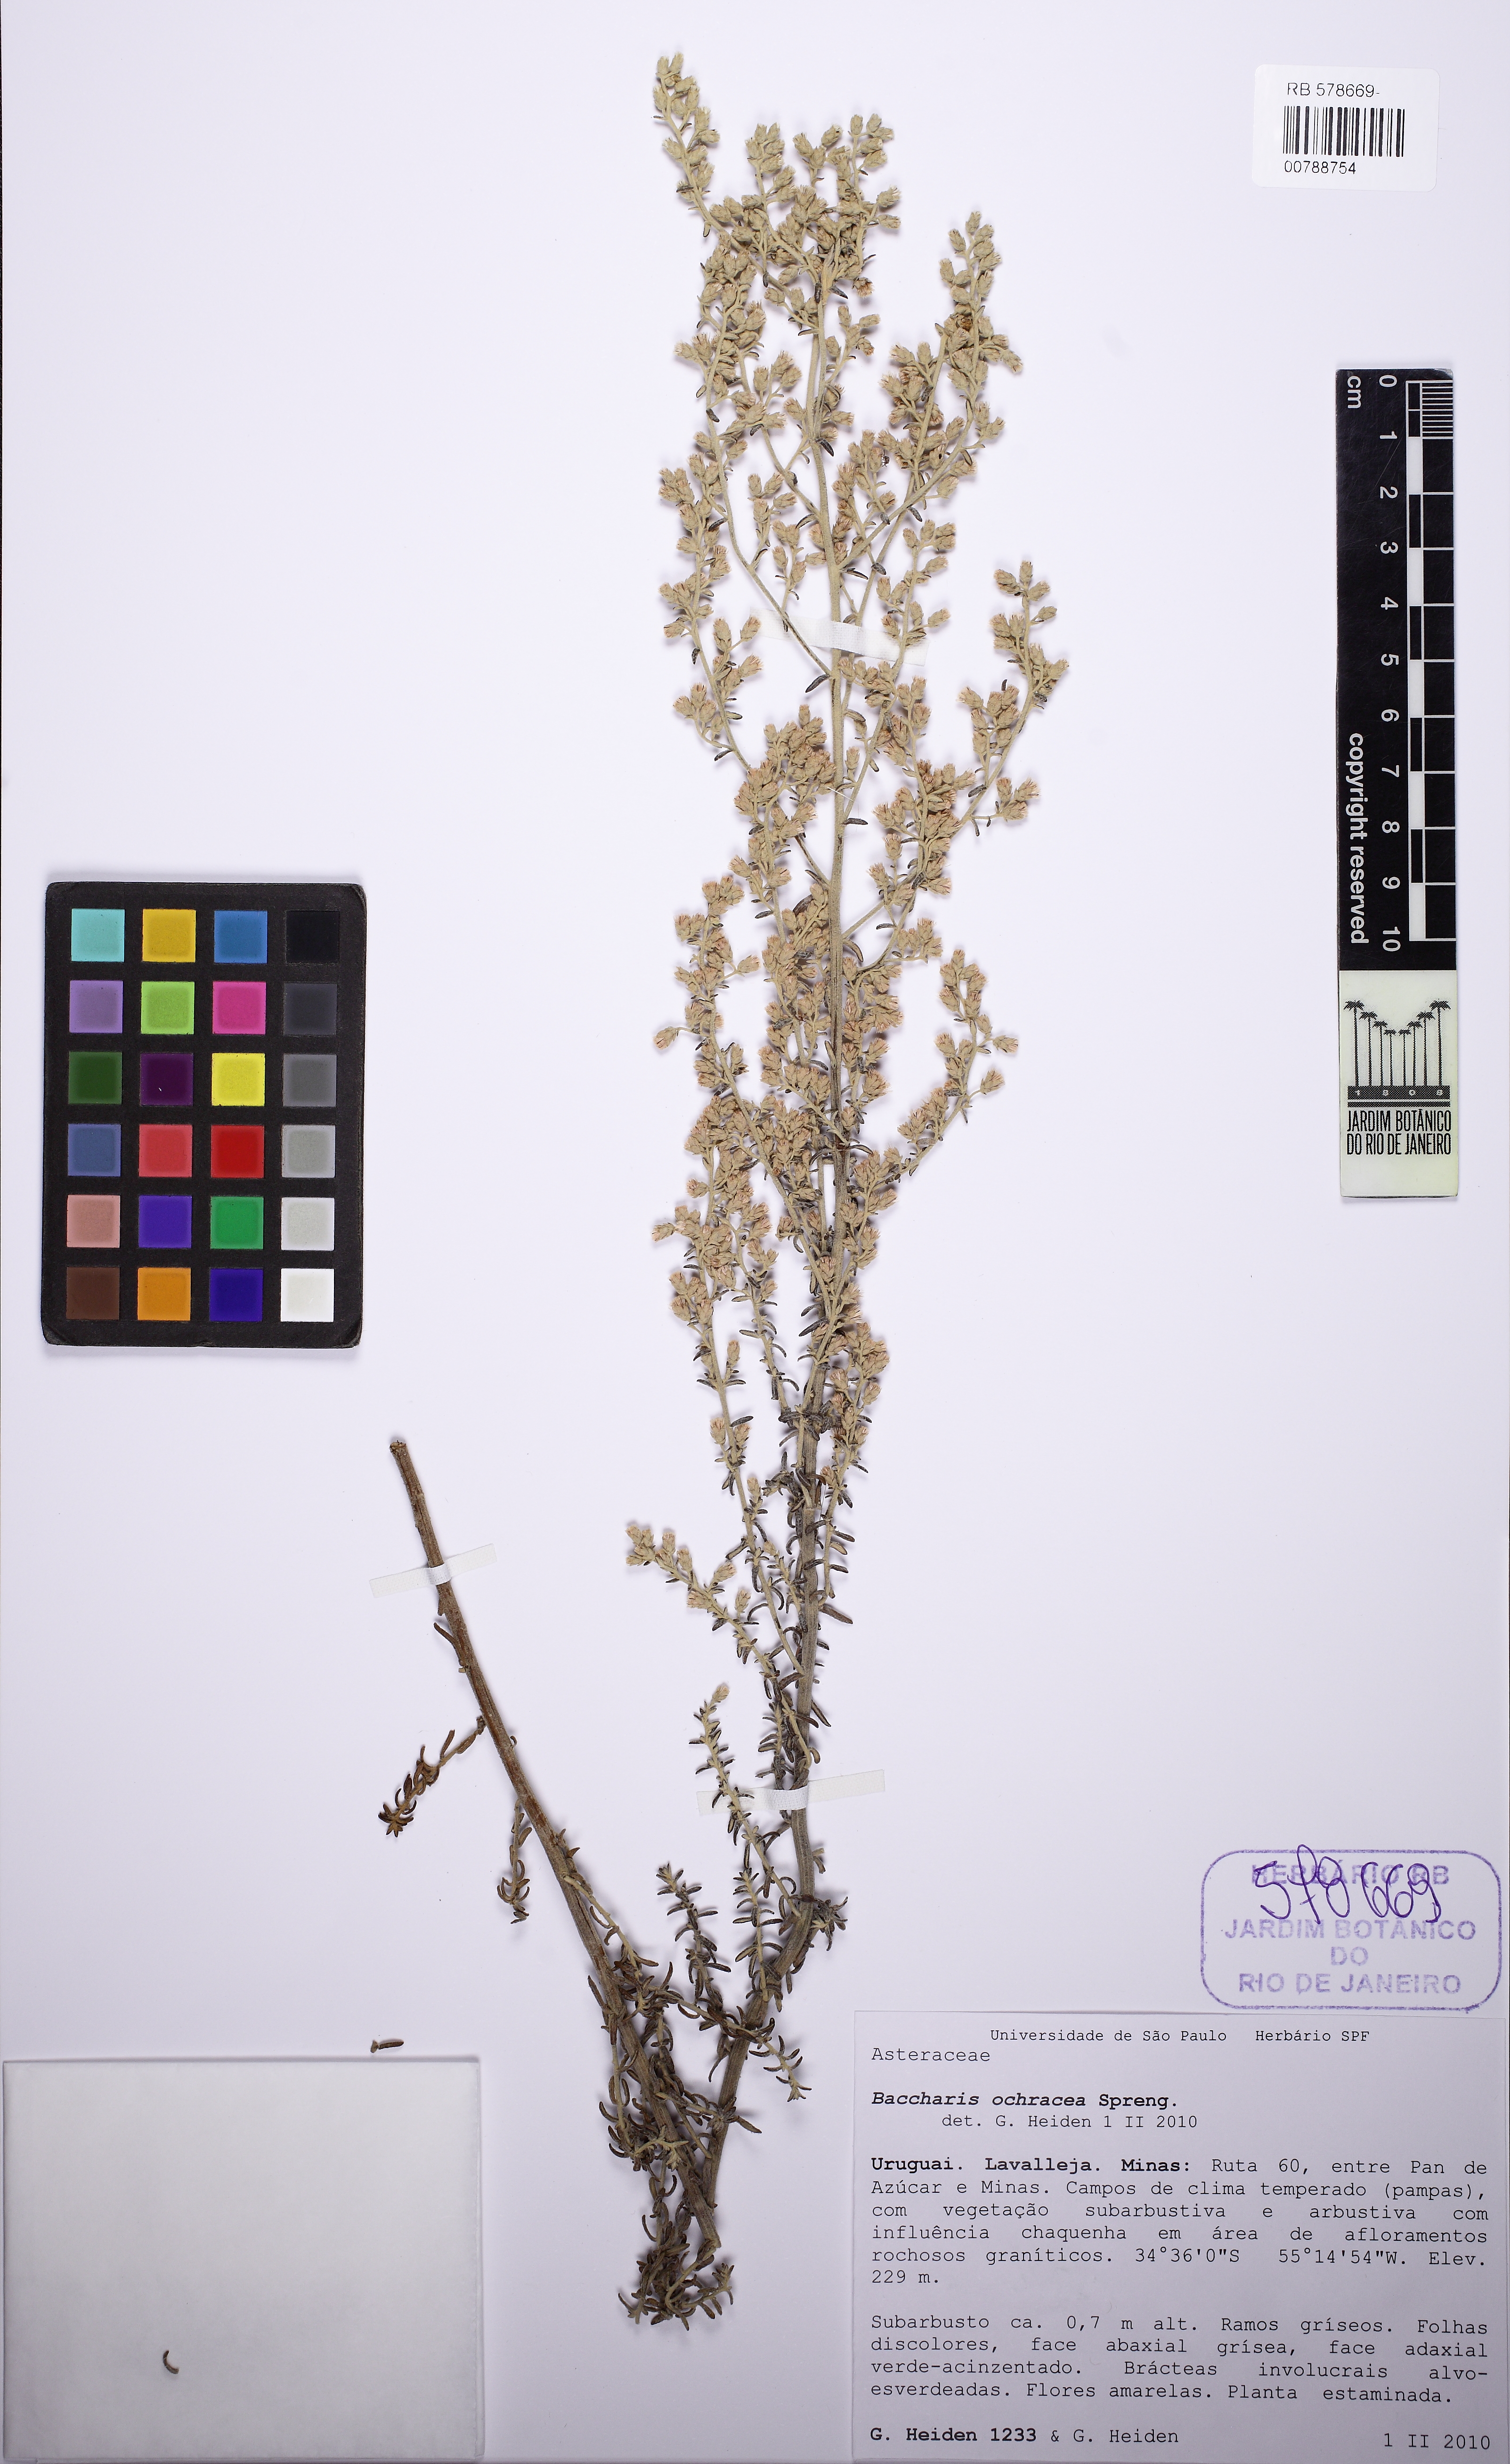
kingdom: Plantae
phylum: Tracheophyta
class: Magnoliopsida
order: Asterales
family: Asteraceae
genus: Baccharis
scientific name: Baccharis ochracea
